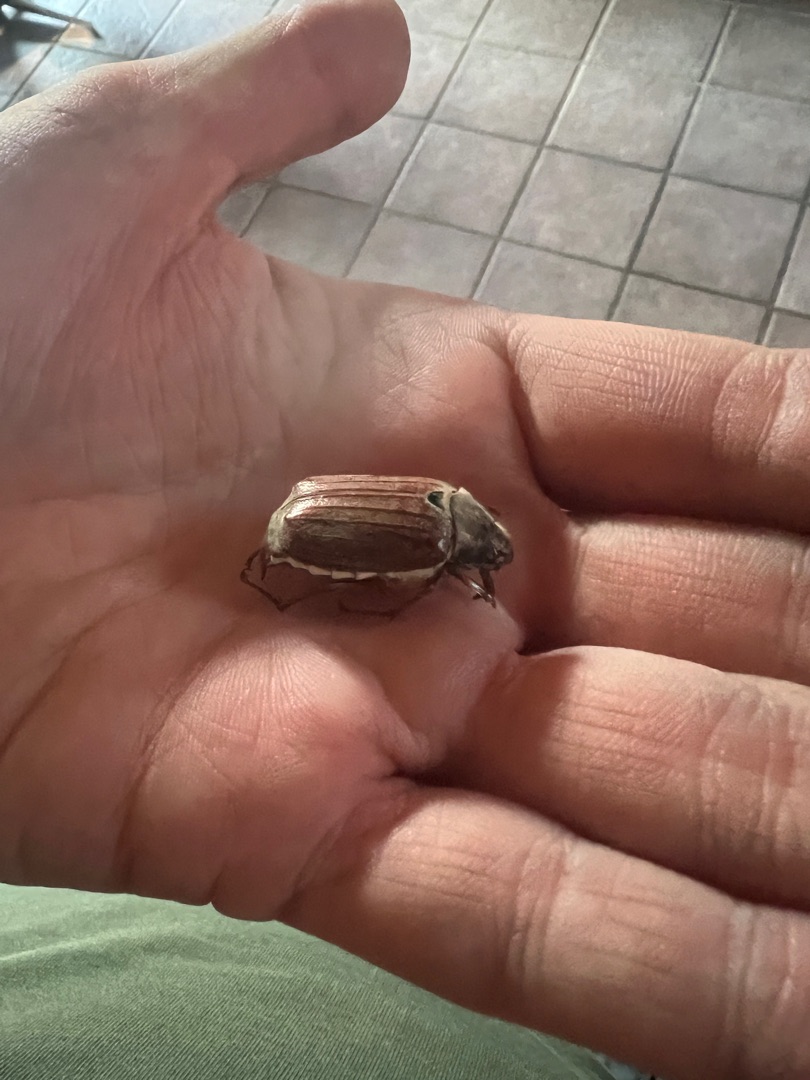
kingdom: Animalia
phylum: Arthropoda
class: Insecta
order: Coleoptera
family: Scarabaeidae
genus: Melolontha
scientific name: Melolontha melolontha
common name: Almindelig oldenborre
